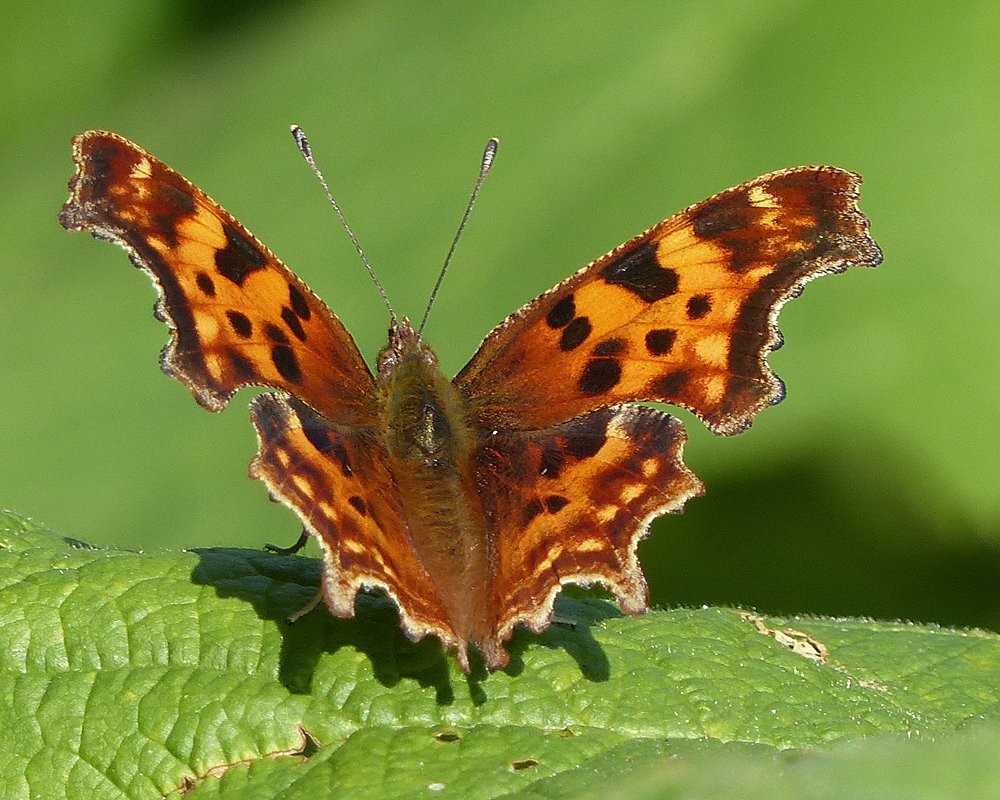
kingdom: Animalia
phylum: Arthropoda
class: Insecta
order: Lepidoptera
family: Nymphalidae
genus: Polygonia
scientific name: Polygonia satyrus
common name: Satyr Comma
